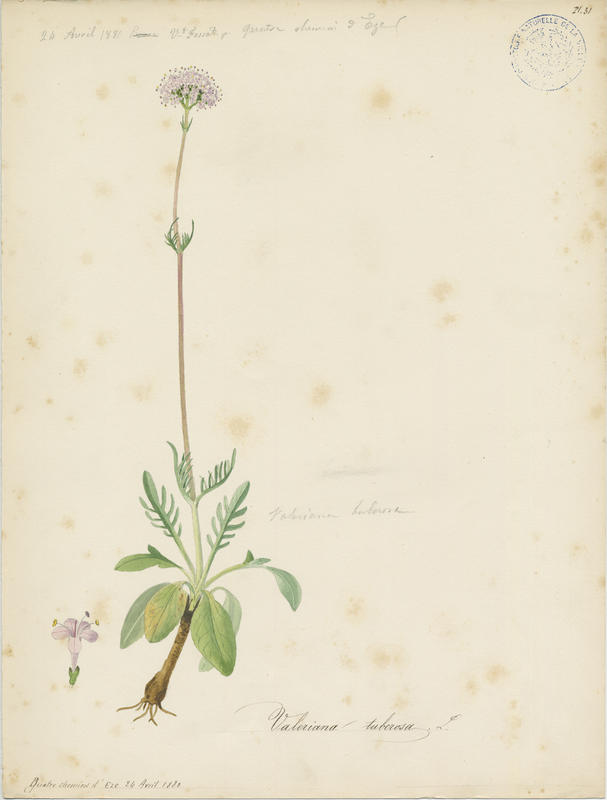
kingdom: Plantae
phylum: Tracheophyta
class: Magnoliopsida
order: Dipsacales
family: Caprifoliaceae
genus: Valeriana
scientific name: Valeriana tuberosa
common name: Tuberous valerian
